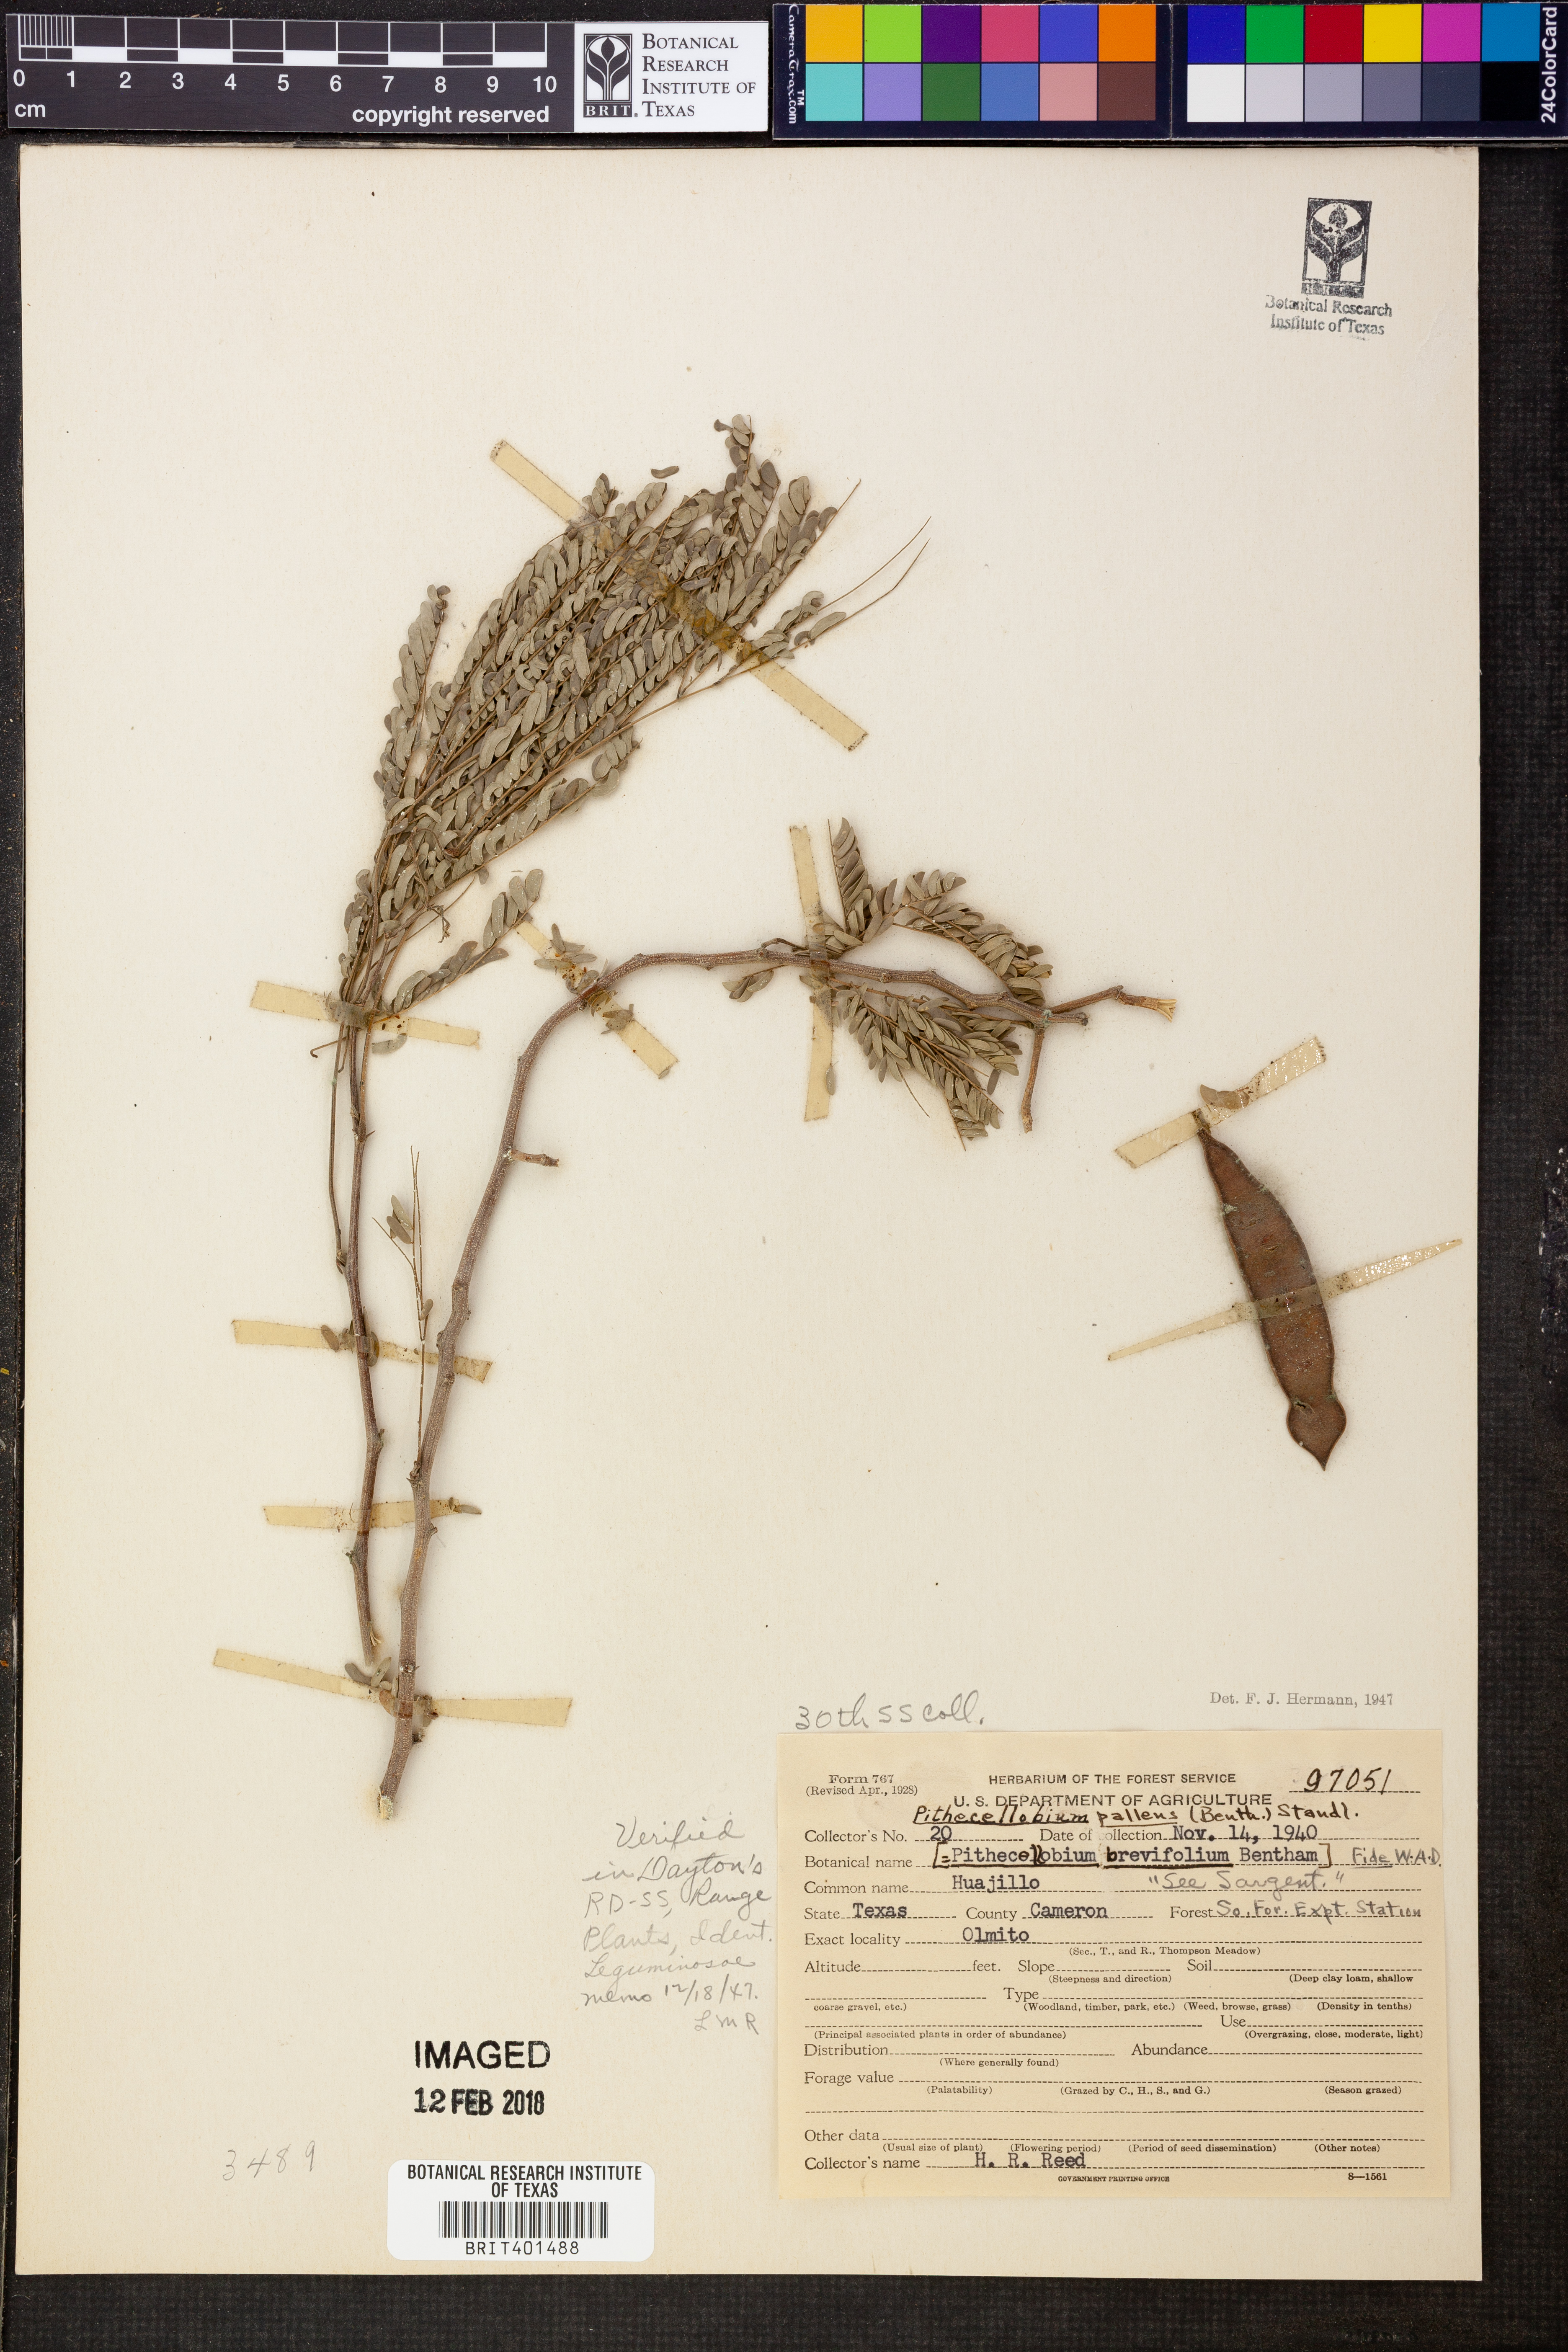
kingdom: Plantae
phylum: Tracheophyta
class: Magnoliopsida
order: Fabales
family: Fabaceae
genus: Havardia
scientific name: Havardia pallens
